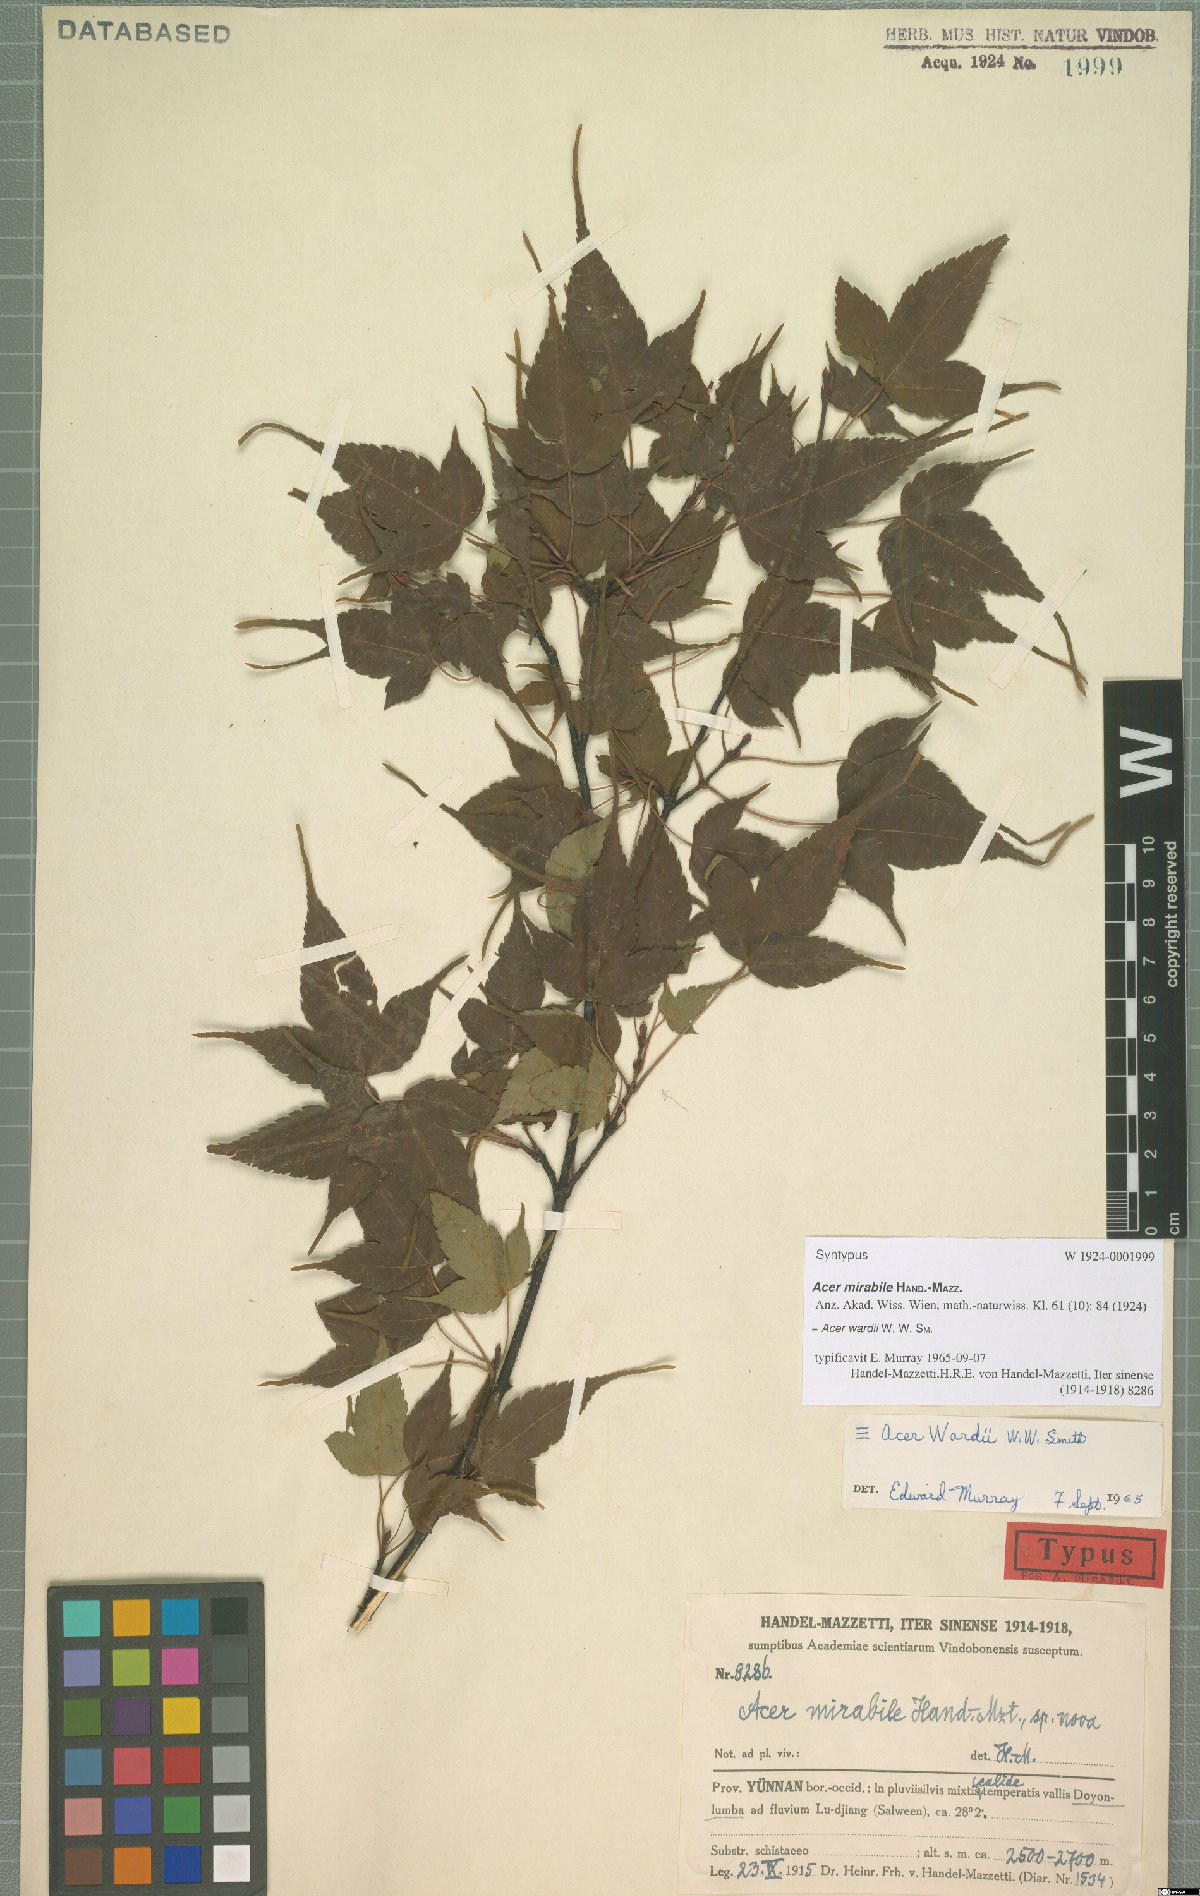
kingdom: Plantae
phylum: Tracheophyta
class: Magnoliopsida
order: Sapindales
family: Sapindaceae
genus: Acer
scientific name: Acer wardii
